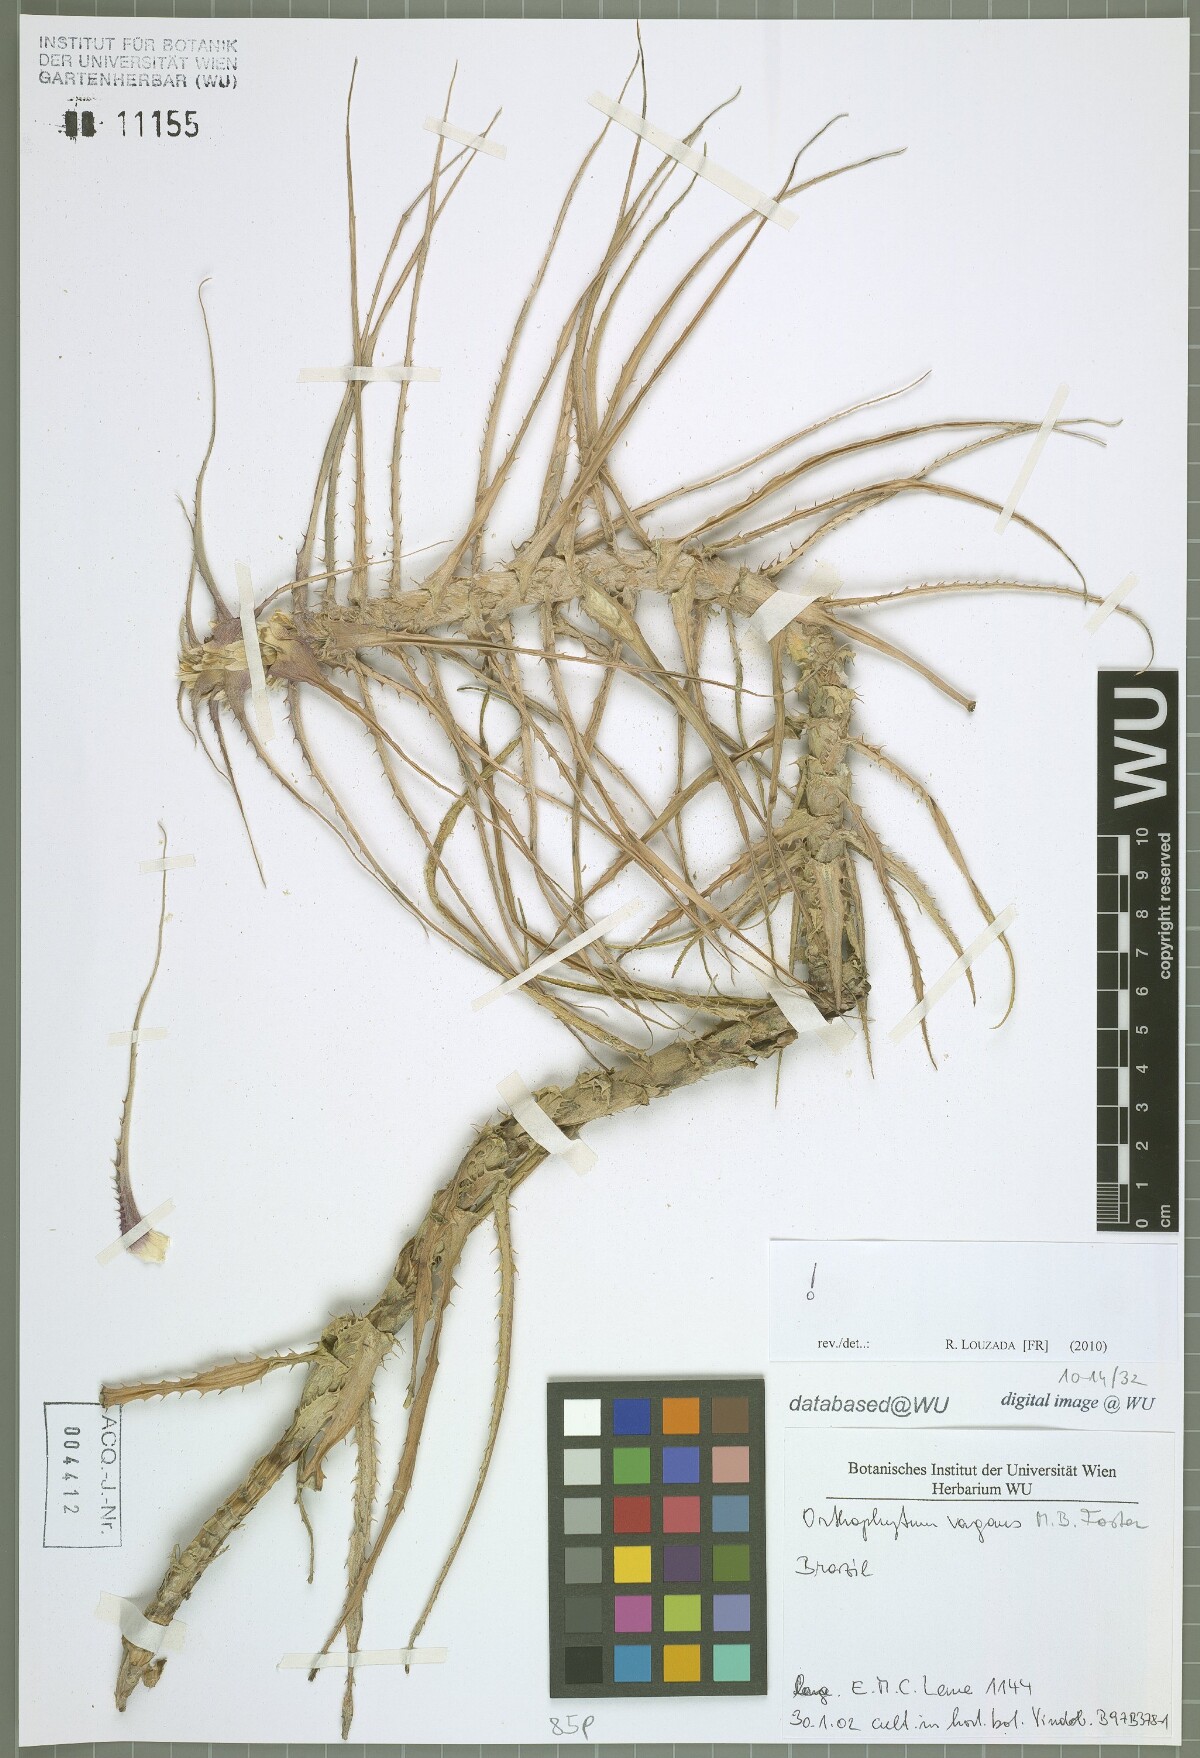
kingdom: Plantae
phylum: Tracheophyta
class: Liliopsida
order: Poales
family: Bromeliaceae
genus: Orthophytum
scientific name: Orthophytum vagans
